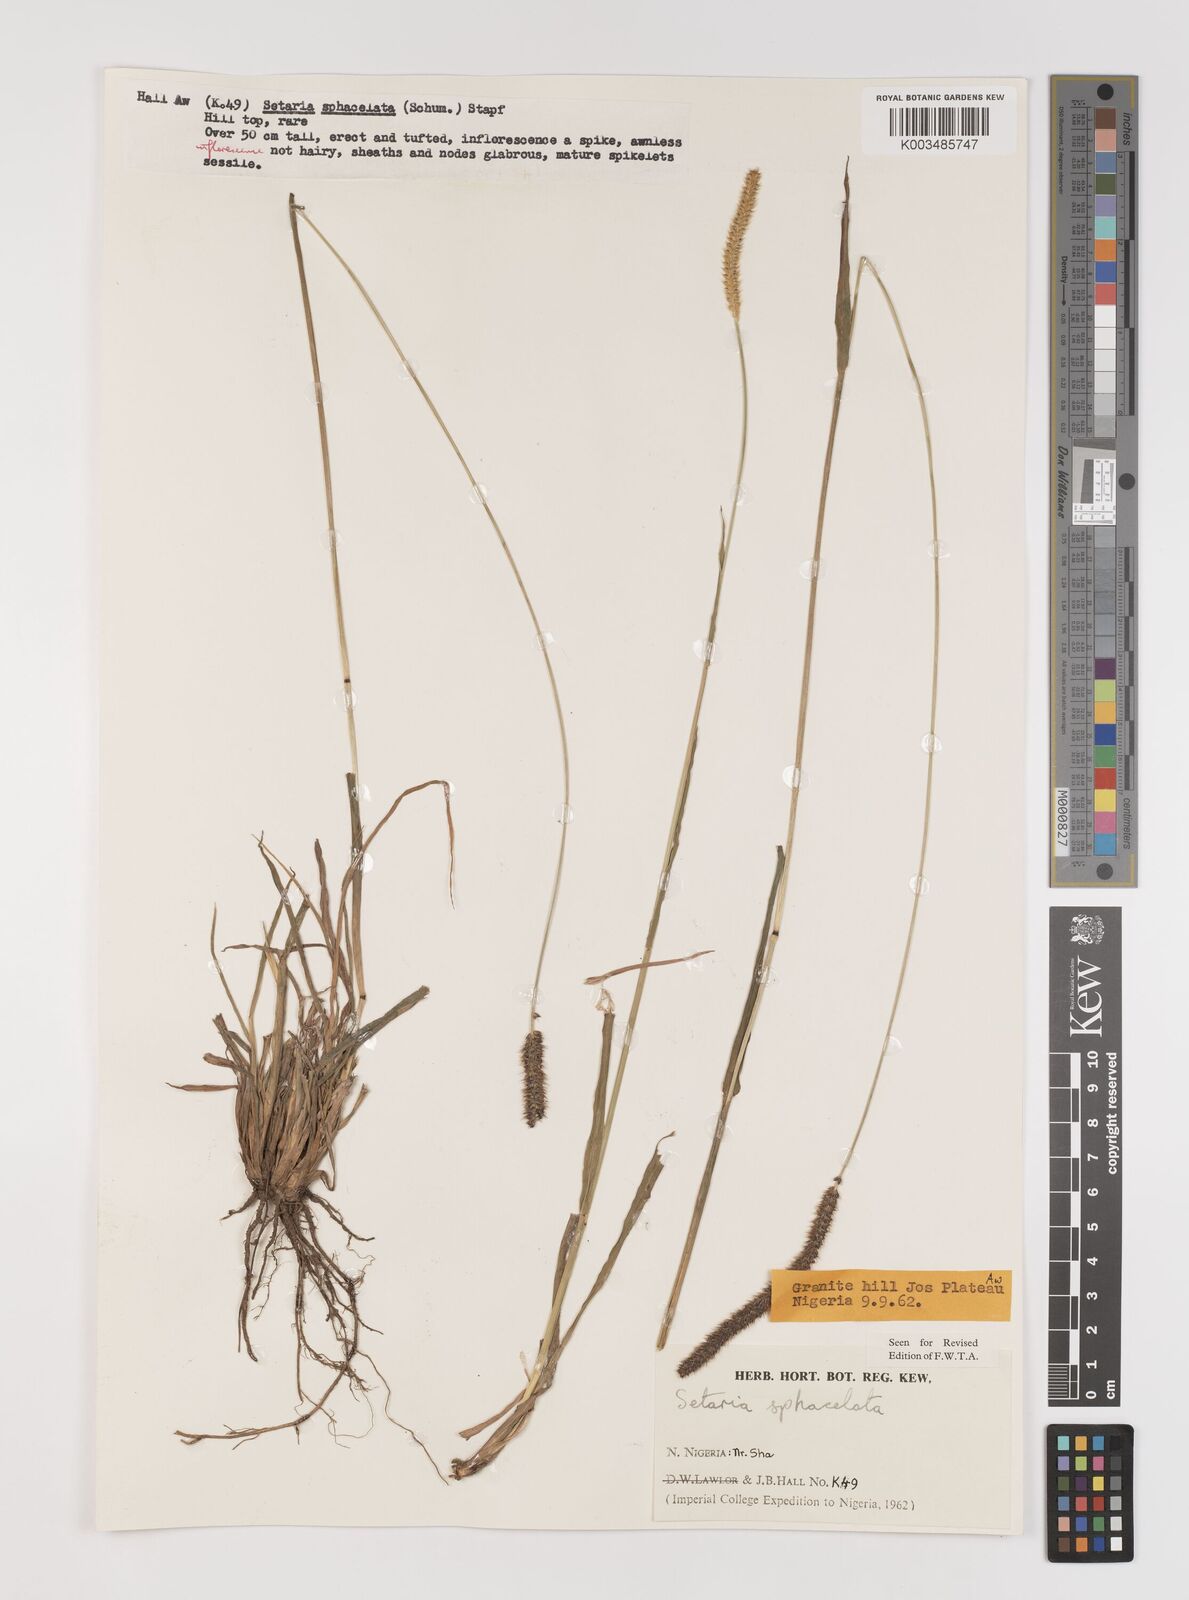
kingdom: Plantae
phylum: Tracheophyta
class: Liliopsida
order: Poales
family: Poaceae
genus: Setaria
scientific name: Setaria sphacelata
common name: African bristlegrass
